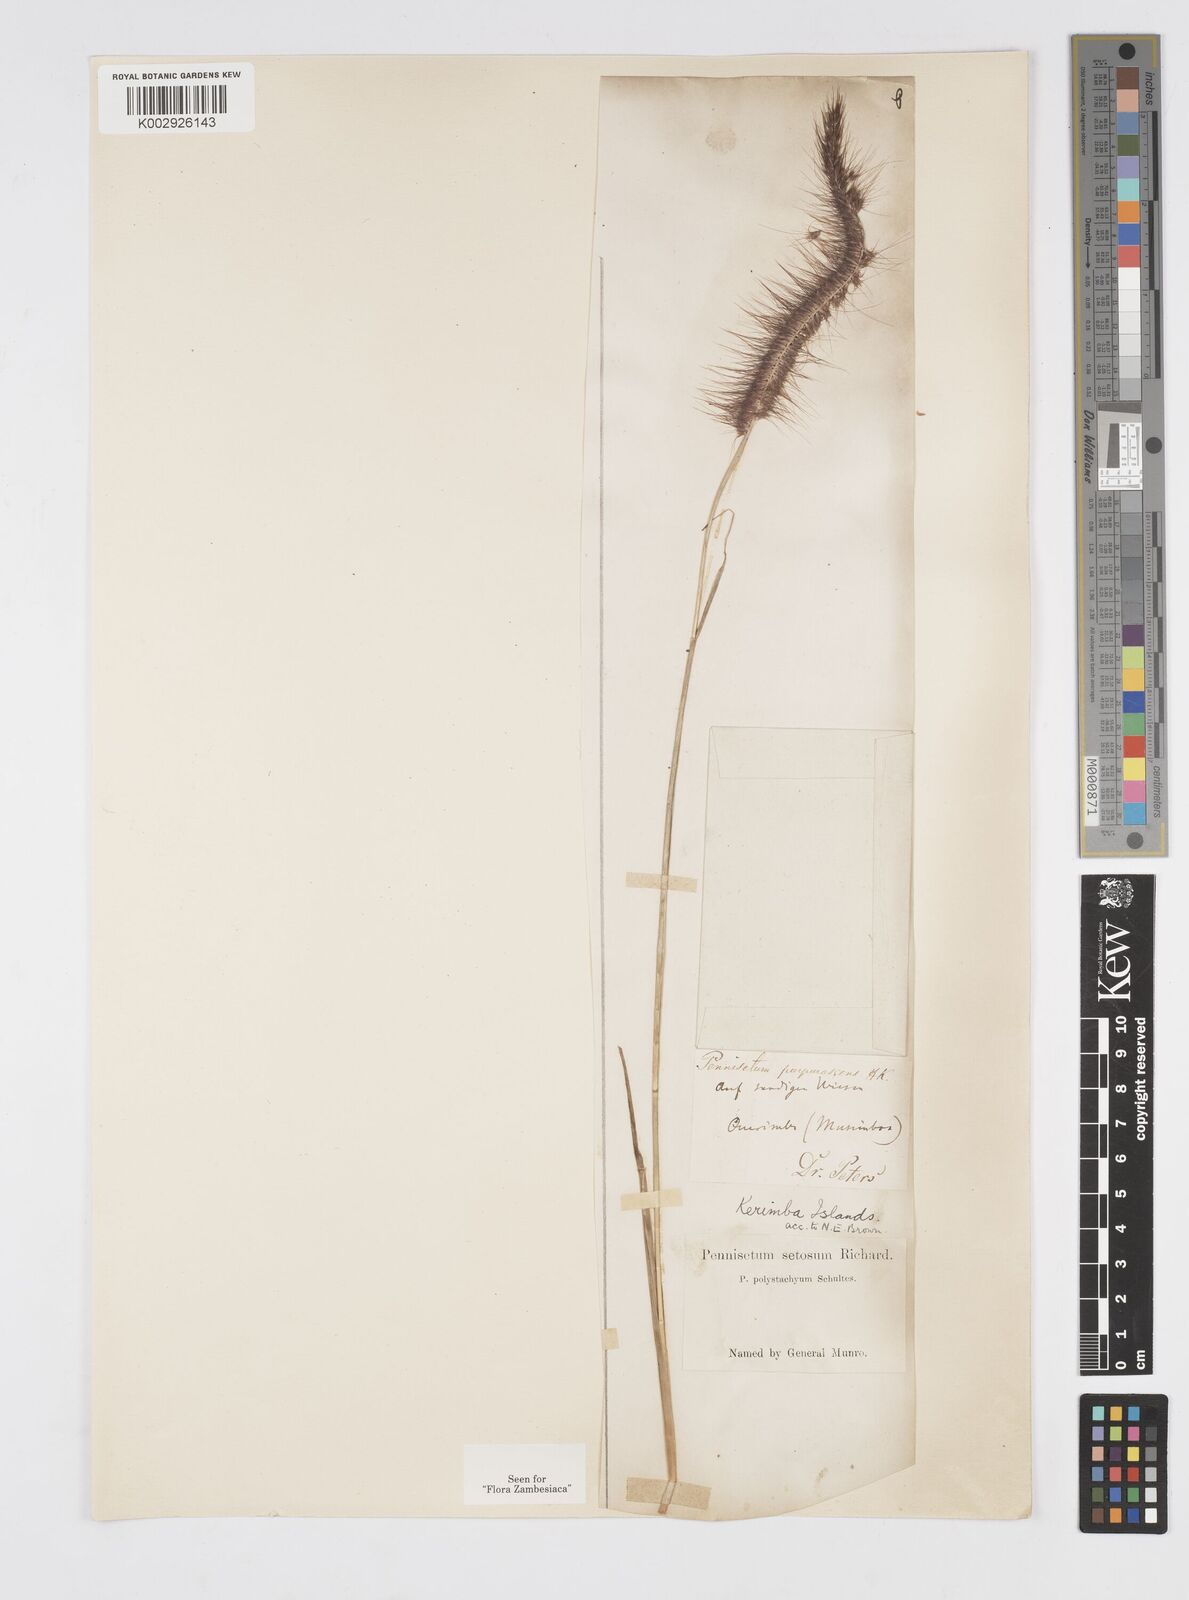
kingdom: Plantae
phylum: Tracheophyta
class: Liliopsida
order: Poales
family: Poaceae
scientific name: Poaceae
